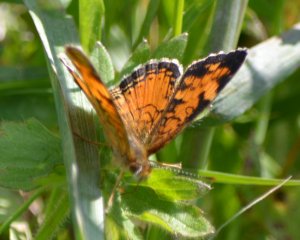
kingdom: Animalia
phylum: Arthropoda
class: Insecta
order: Lepidoptera
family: Nymphalidae
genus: Phyciodes
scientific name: Phyciodes tharos
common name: Northern Crescent
